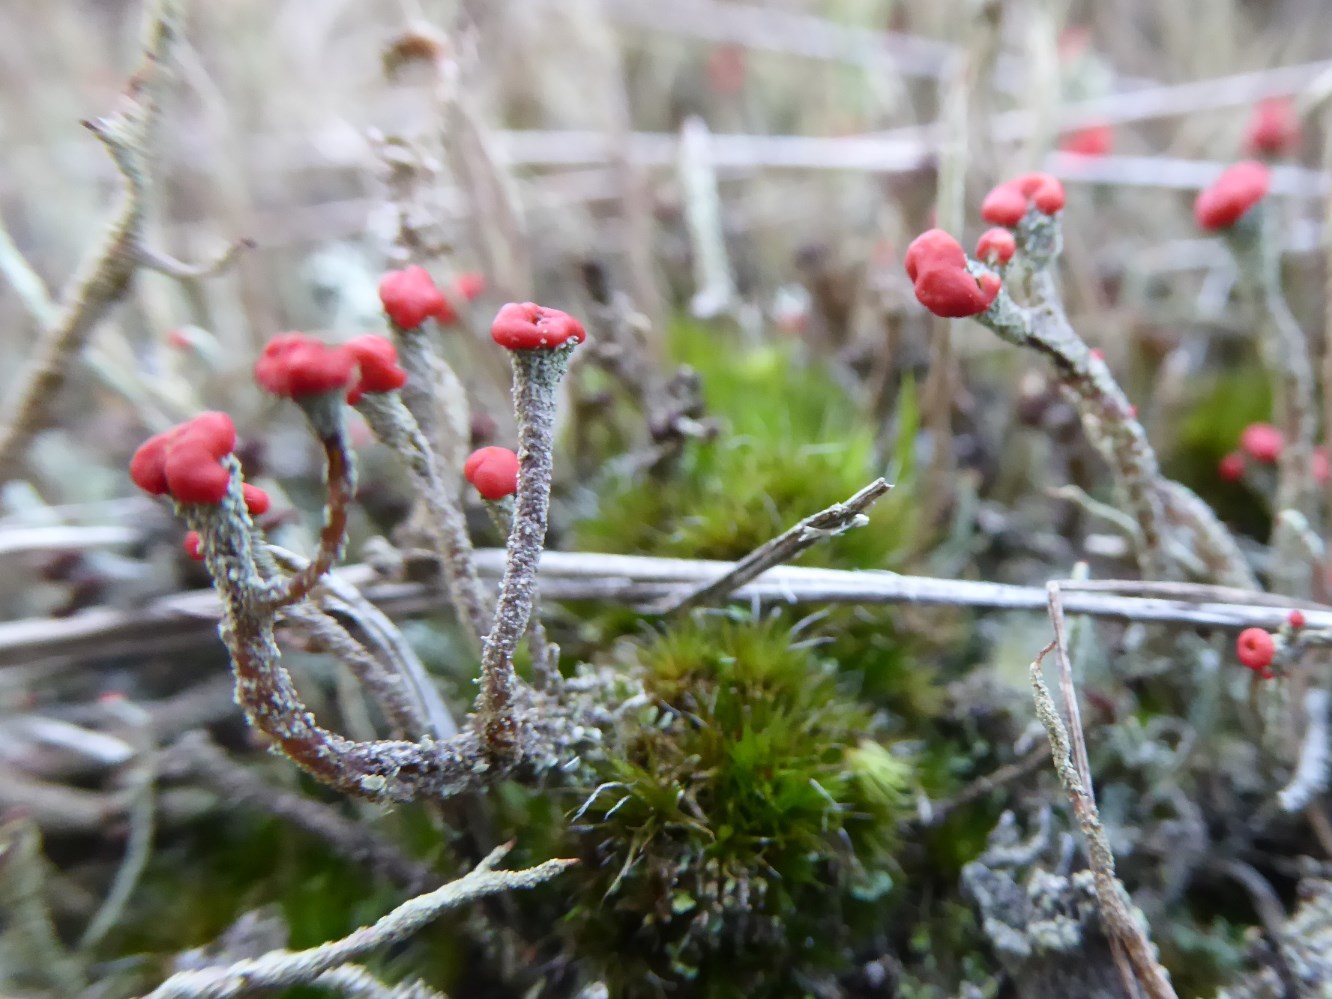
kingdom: Fungi
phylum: Ascomycota
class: Lecanoromycetes
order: Lecanorales
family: Cladoniaceae
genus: Cladonia
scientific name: Cladonia floerkeana
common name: lakrød bægerlav
